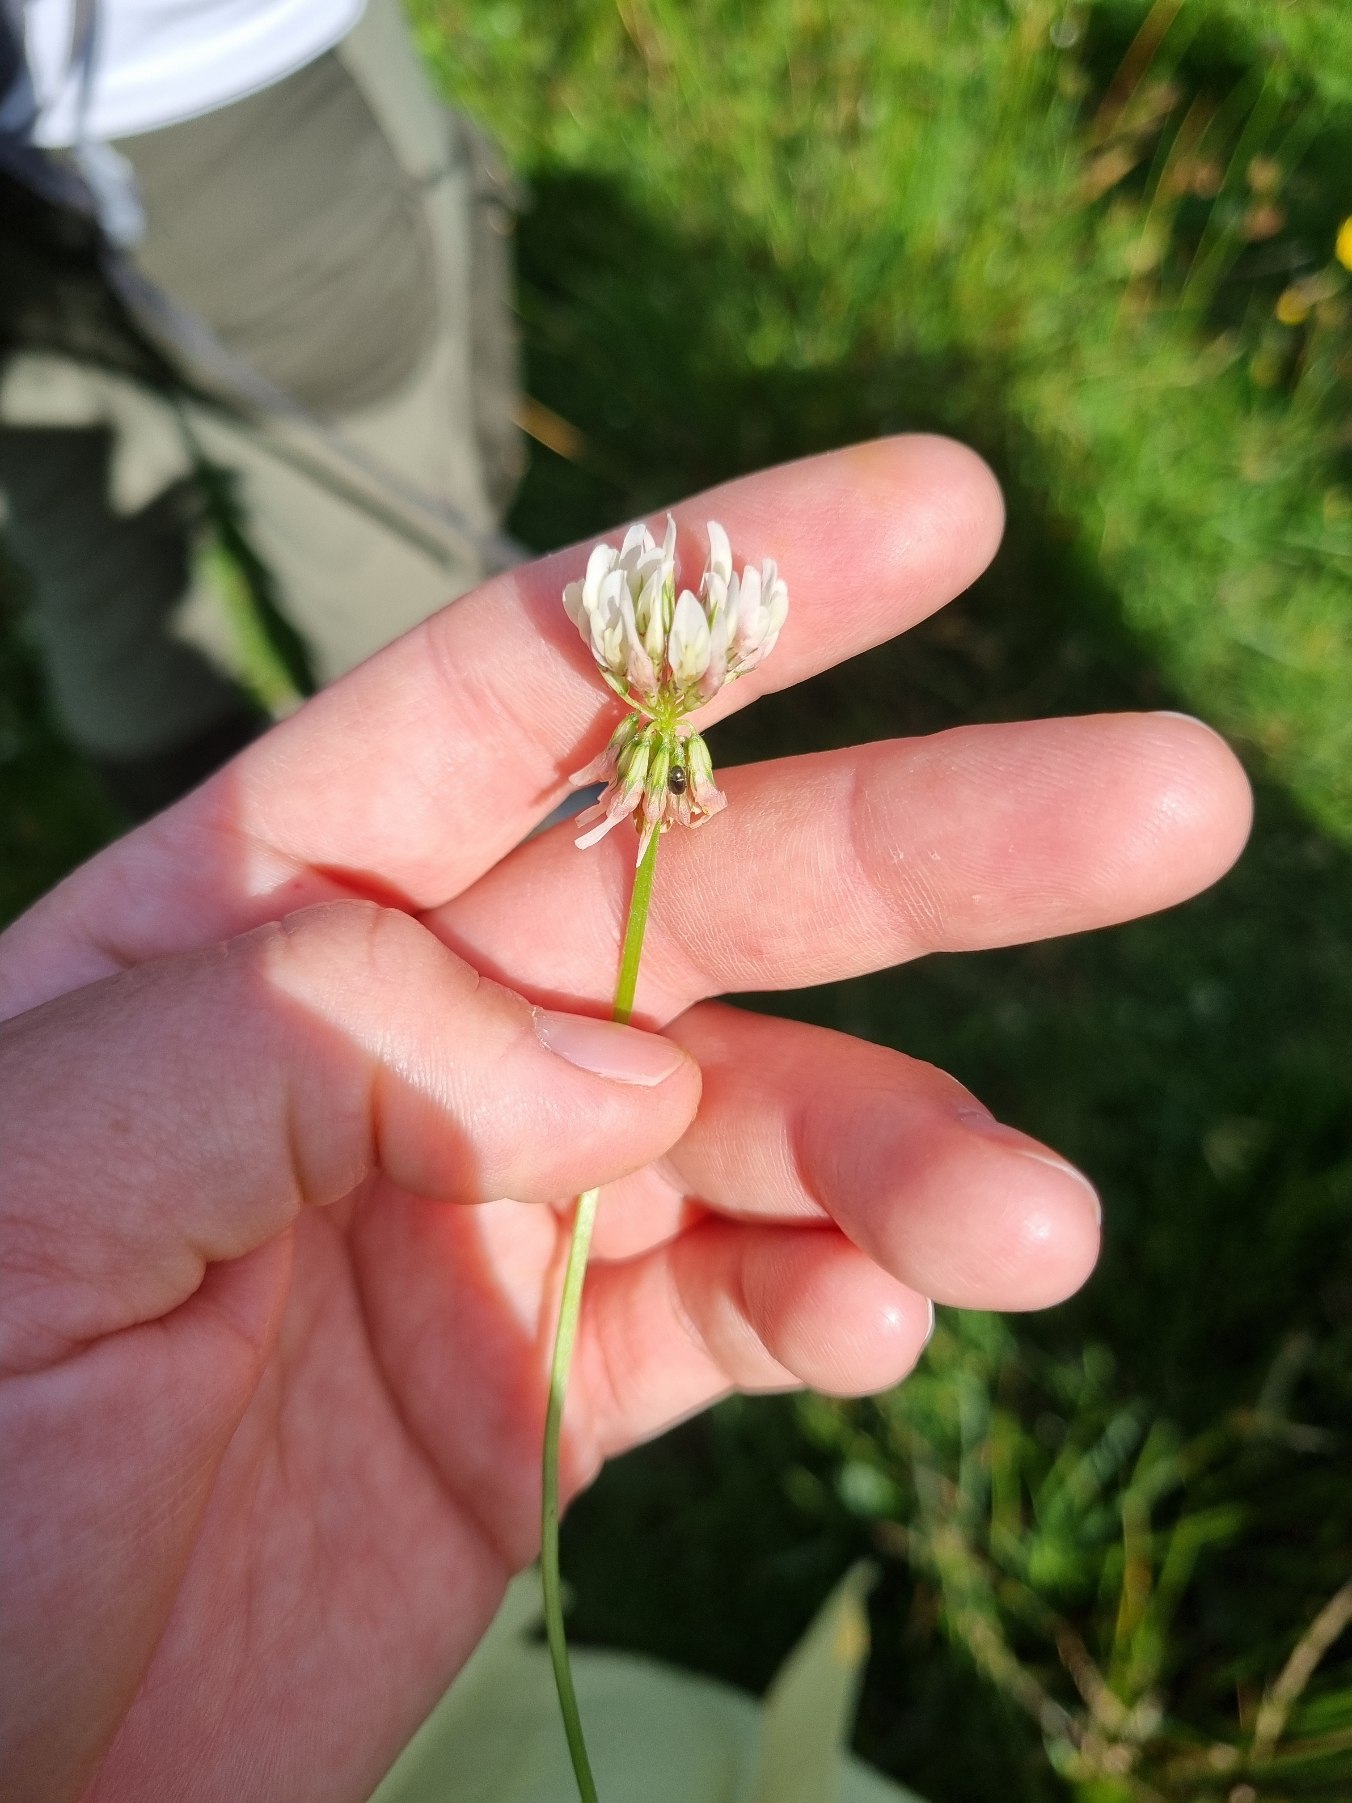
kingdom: Plantae
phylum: Tracheophyta
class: Magnoliopsida
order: Fabales
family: Fabaceae
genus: Trifolium
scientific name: Trifolium repens
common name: Hvid-kløver
